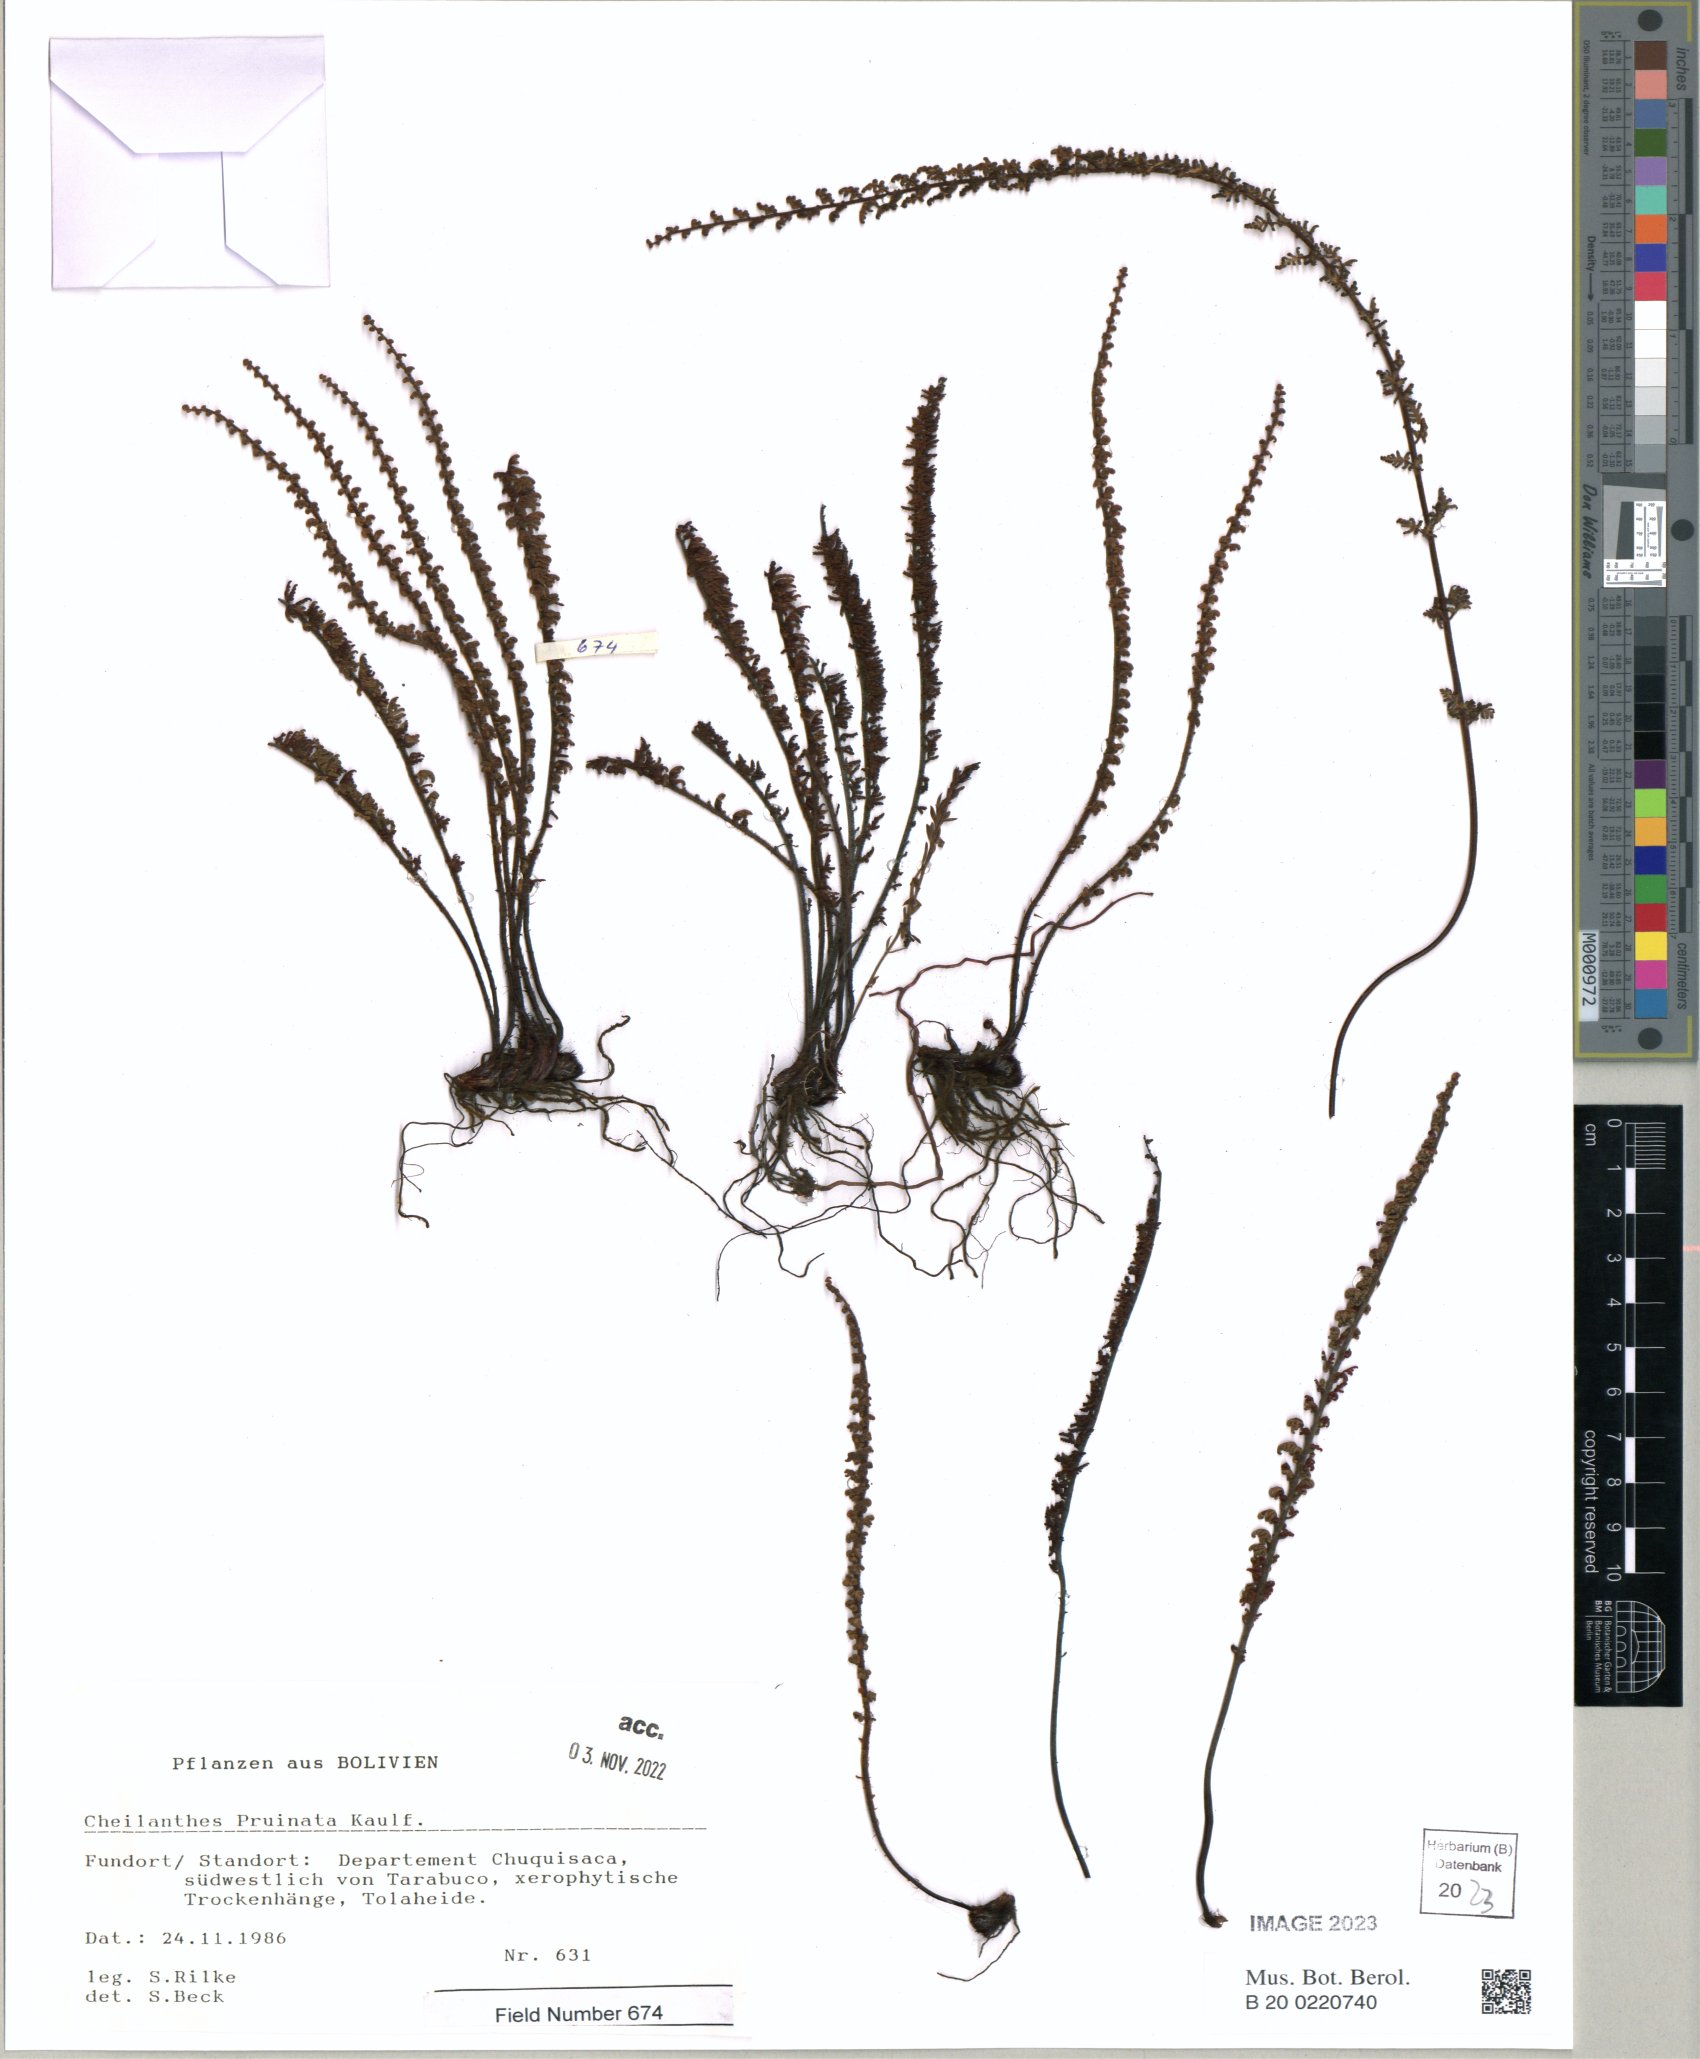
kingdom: Plantae
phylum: Tracheophyta
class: Polypodiopsida
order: Polypodiales
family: Pteridaceae
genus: Cheilanthes
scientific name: Cheilanthes pruinata
